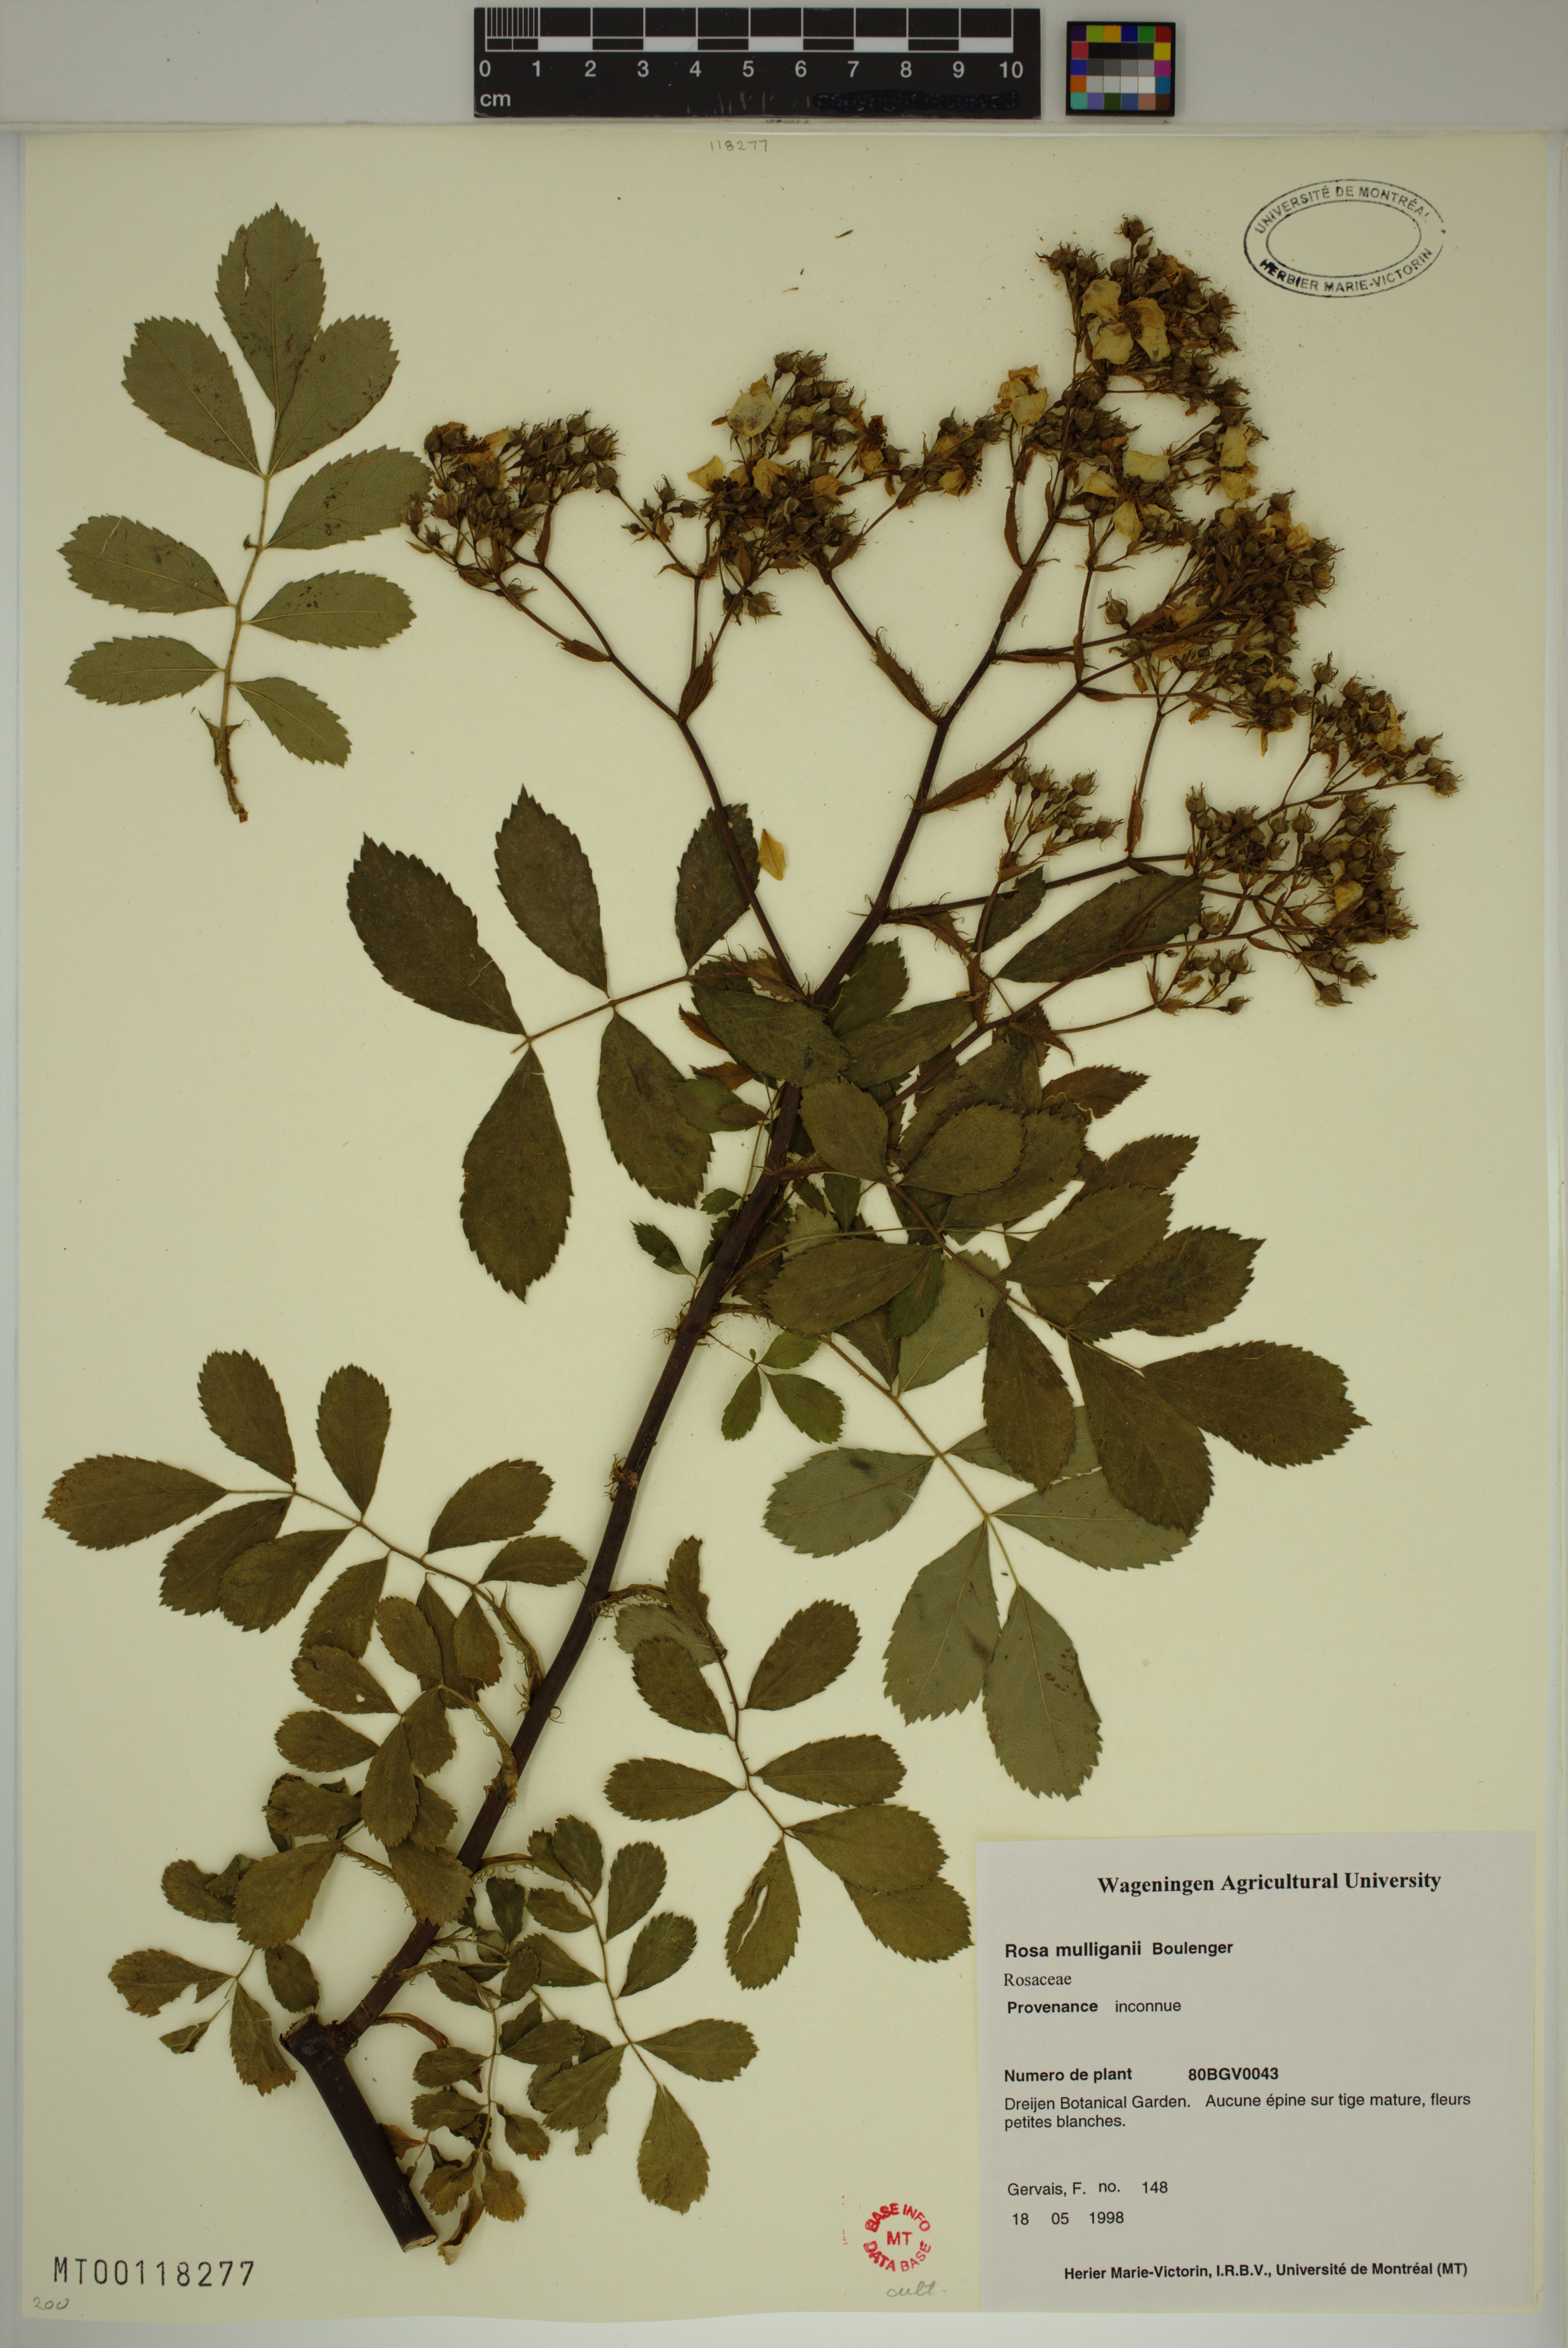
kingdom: Plantae
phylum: Tracheophyta
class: Magnoliopsida
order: Rosales
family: Rosaceae
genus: Rosa
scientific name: Rosa longicuspis
